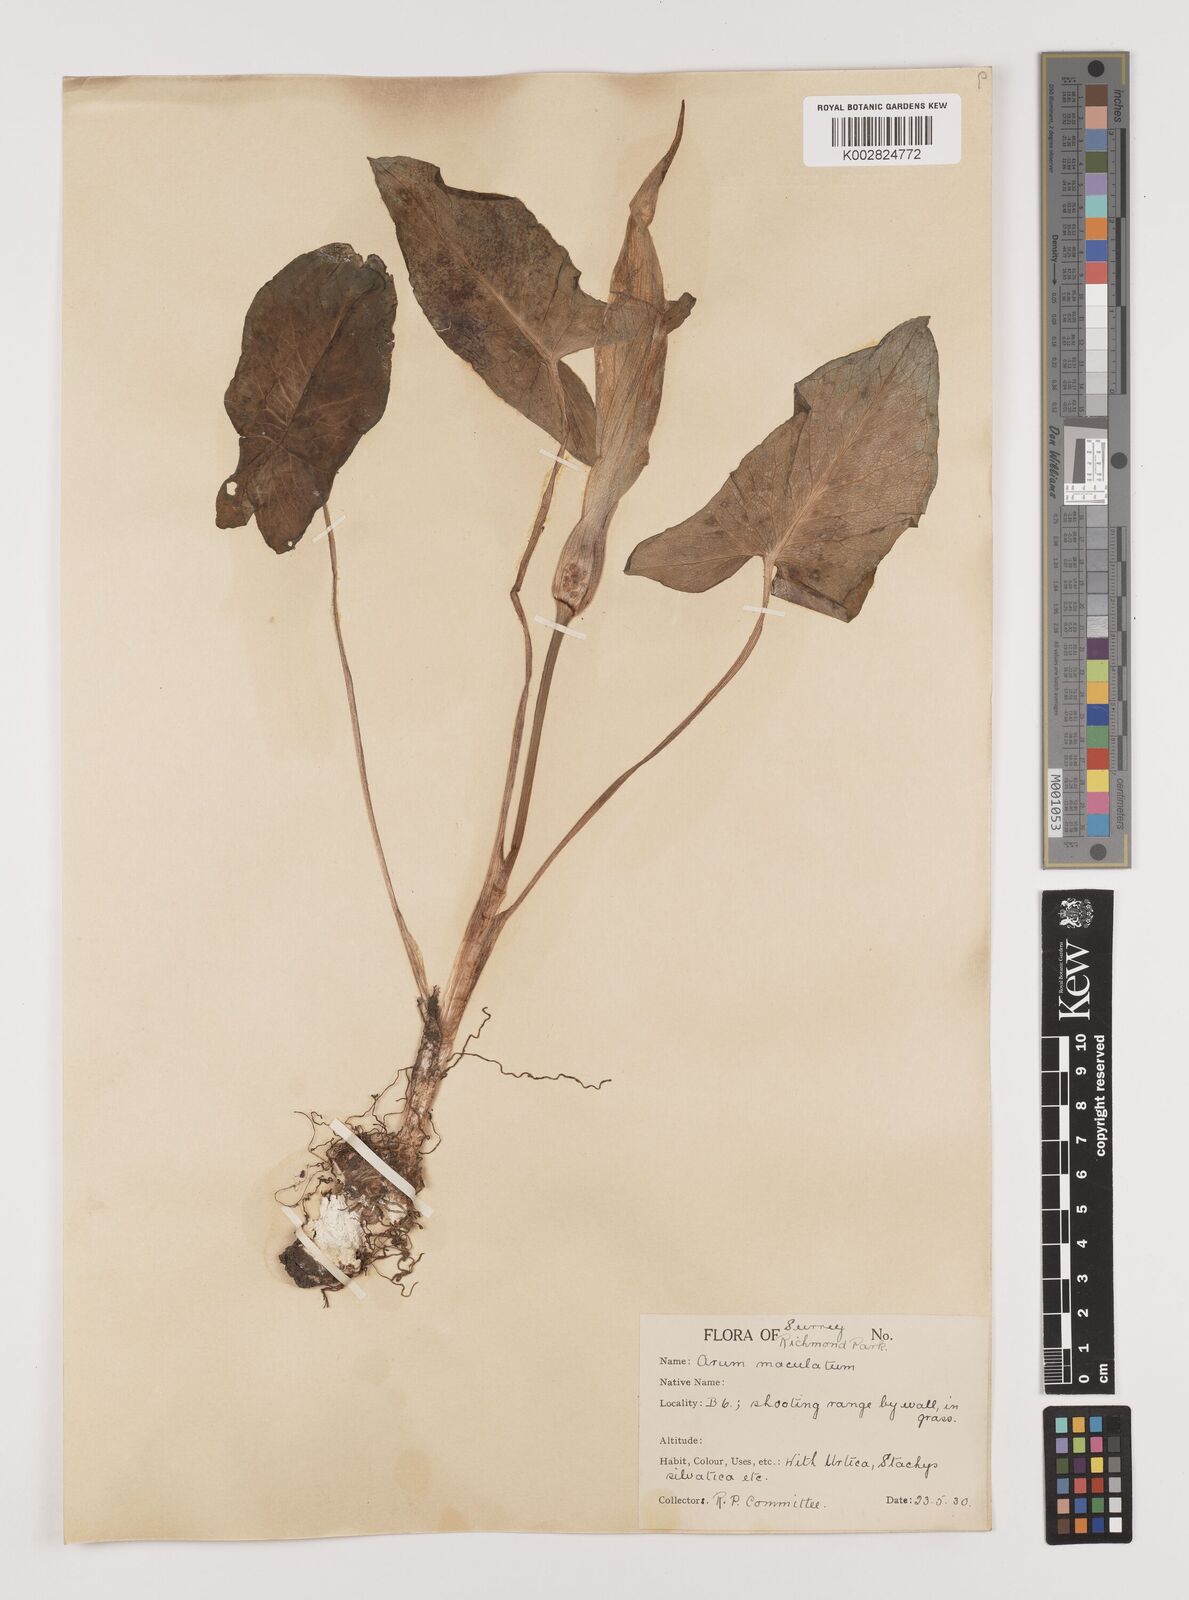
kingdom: Plantae
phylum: Tracheophyta
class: Liliopsida
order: Alismatales
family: Araceae
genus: Arum
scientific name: Arum maculatum
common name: Lords-and-ladies
